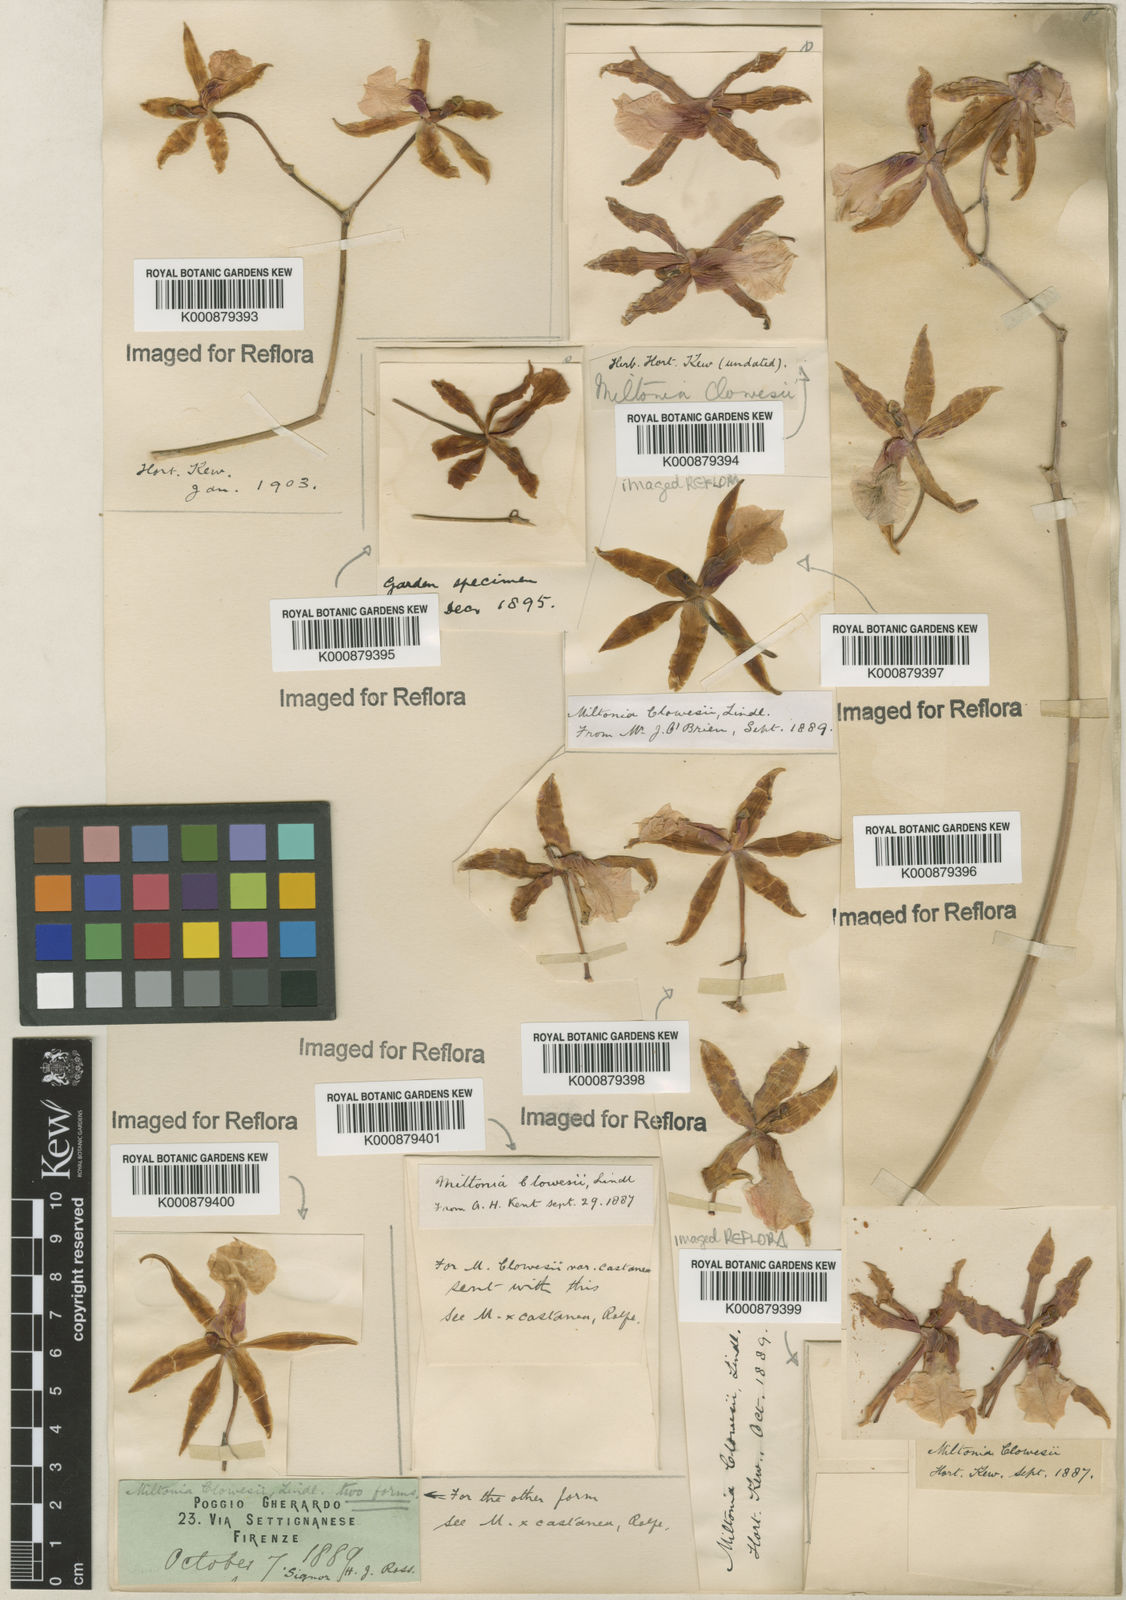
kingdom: Plantae
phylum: Tracheophyta
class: Liliopsida
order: Asparagales
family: Orchidaceae
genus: Miltonia
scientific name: Miltonia clowesii
